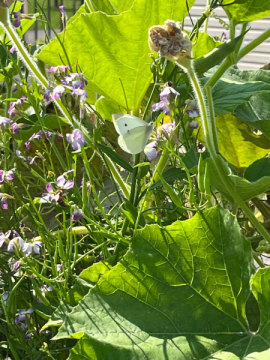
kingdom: Animalia
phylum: Arthropoda
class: Insecta
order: Lepidoptera
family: Pieridae
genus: Pieris
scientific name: Pieris rapae
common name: Cabbage White
